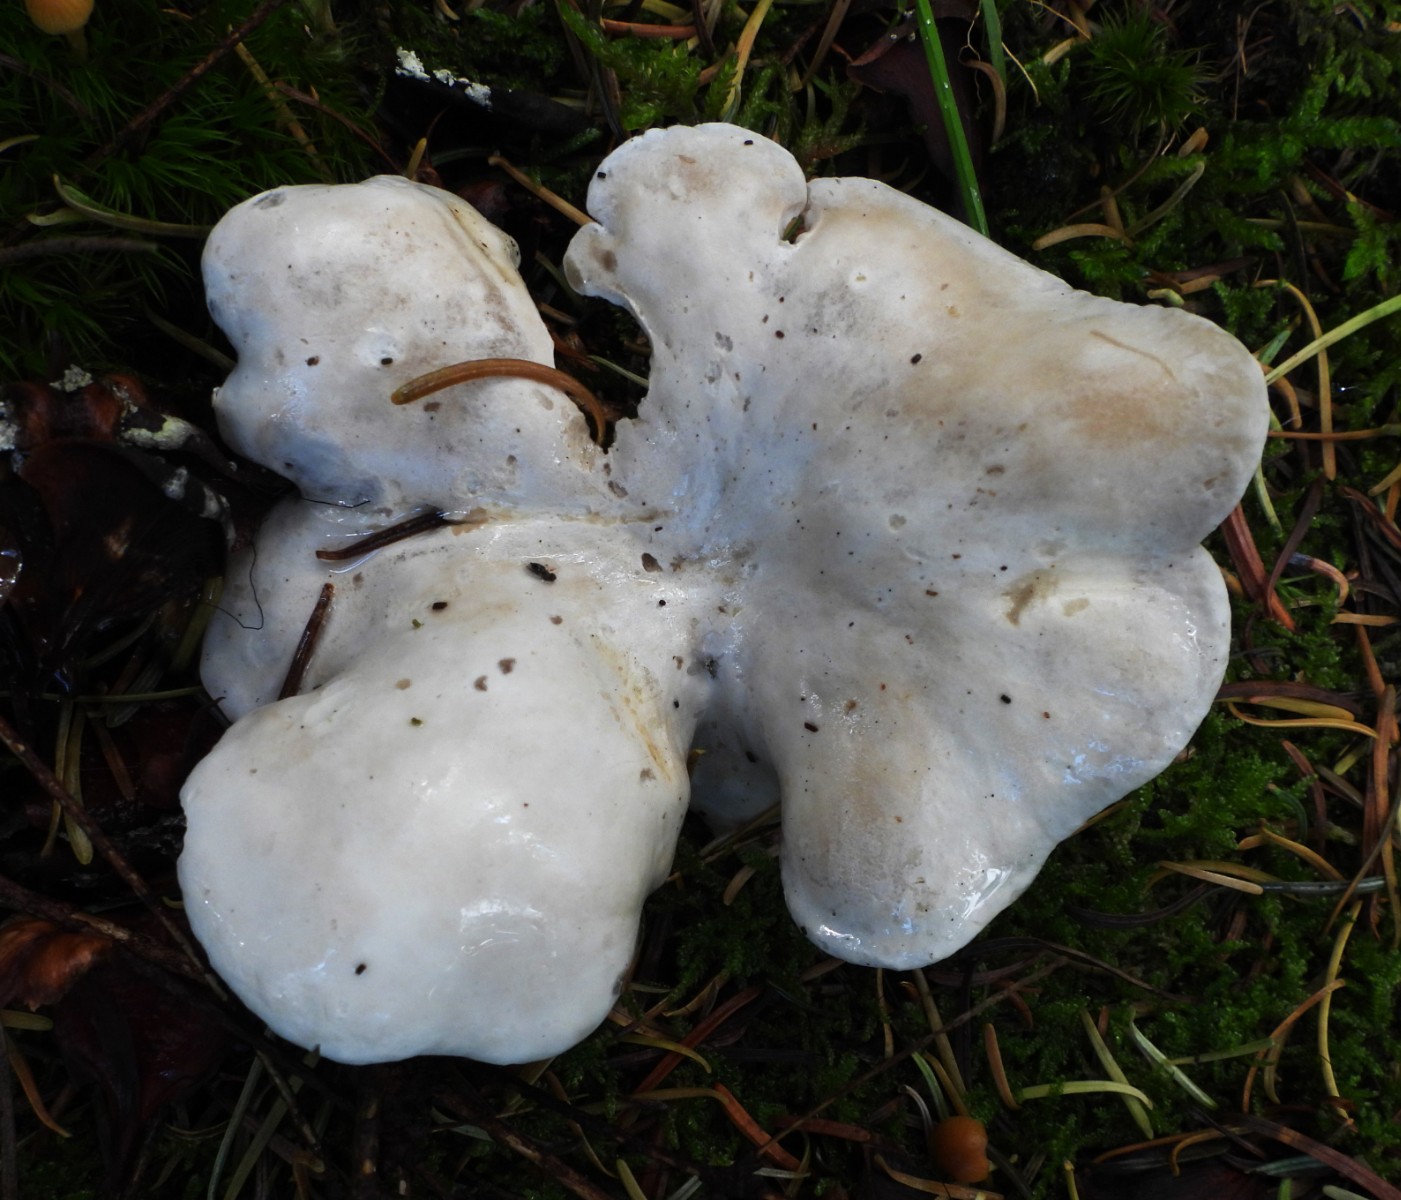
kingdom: Fungi
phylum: Basidiomycota
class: Agaricomycetes
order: Agaricales
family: Entolomataceae
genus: Clitopilus
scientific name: Clitopilus prunulus
